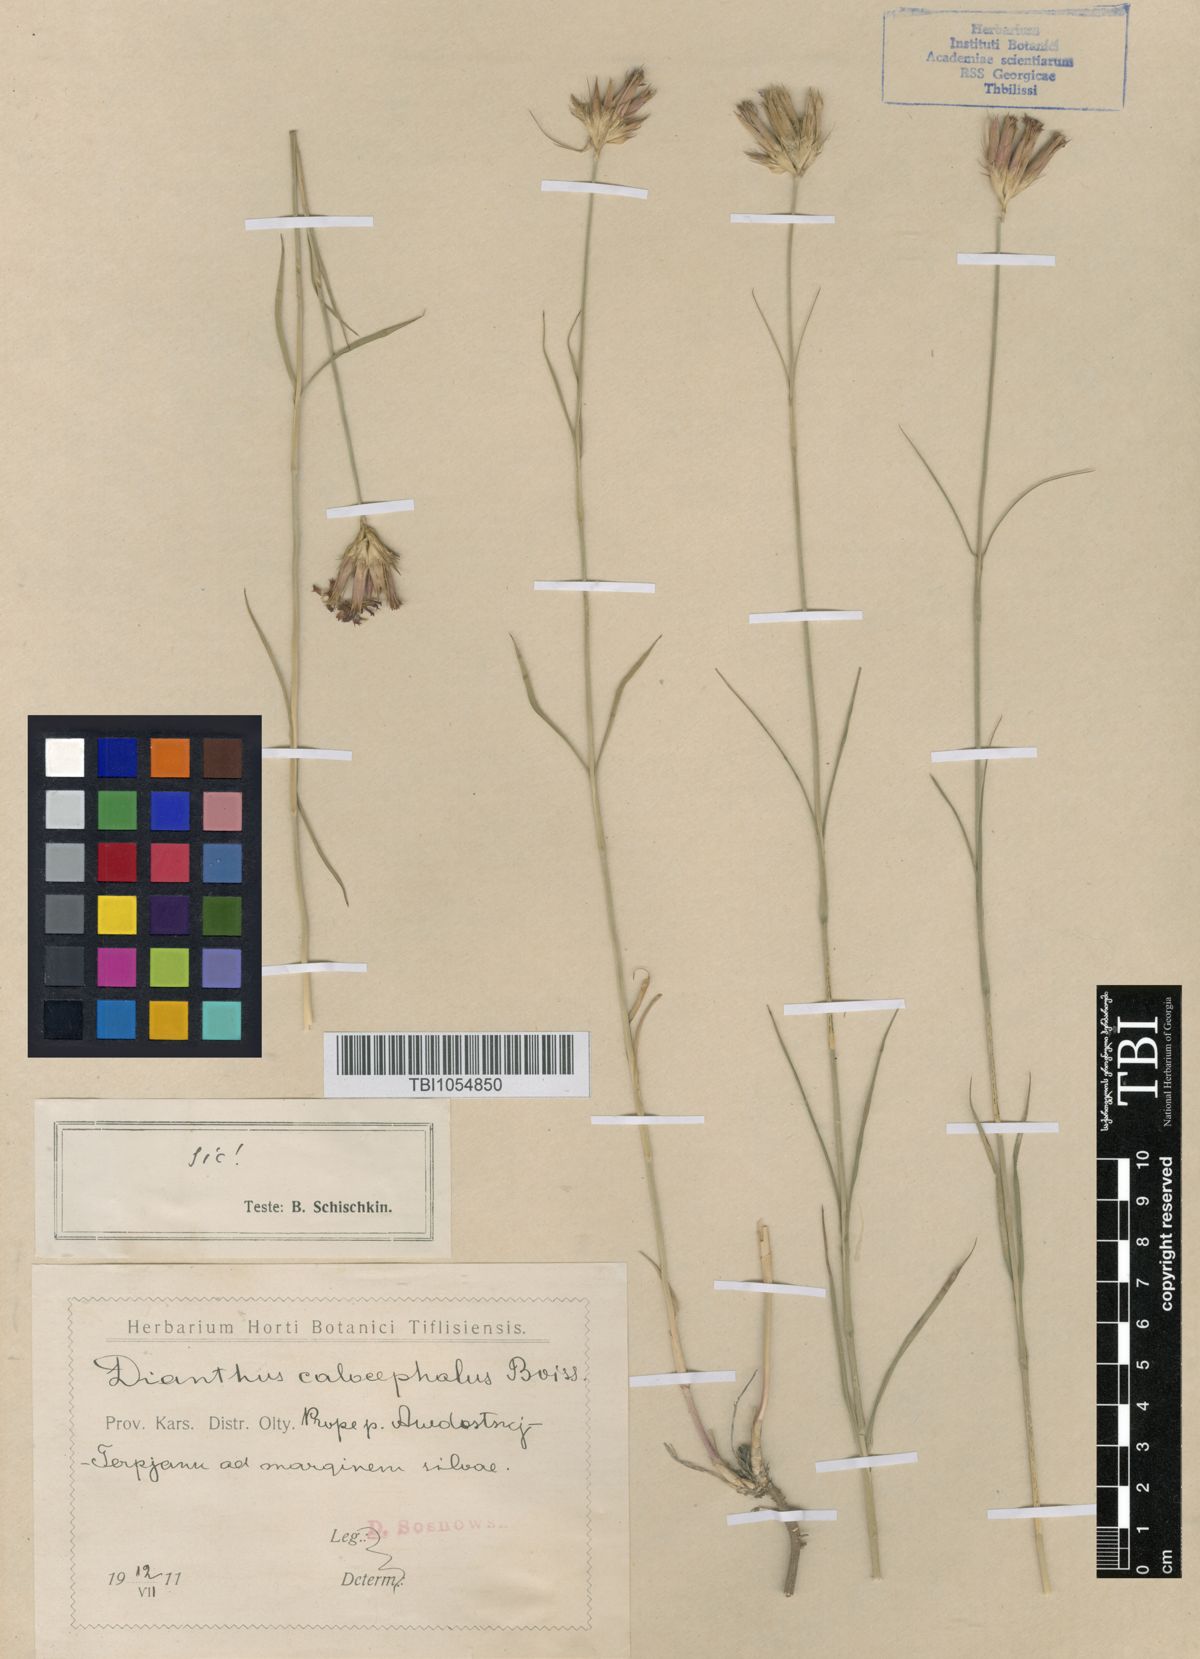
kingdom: Plantae
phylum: Tracheophyta
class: Magnoliopsida
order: Caryophyllales
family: Caryophyllaceae
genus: Dianthus
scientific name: Dianthus cruentus
